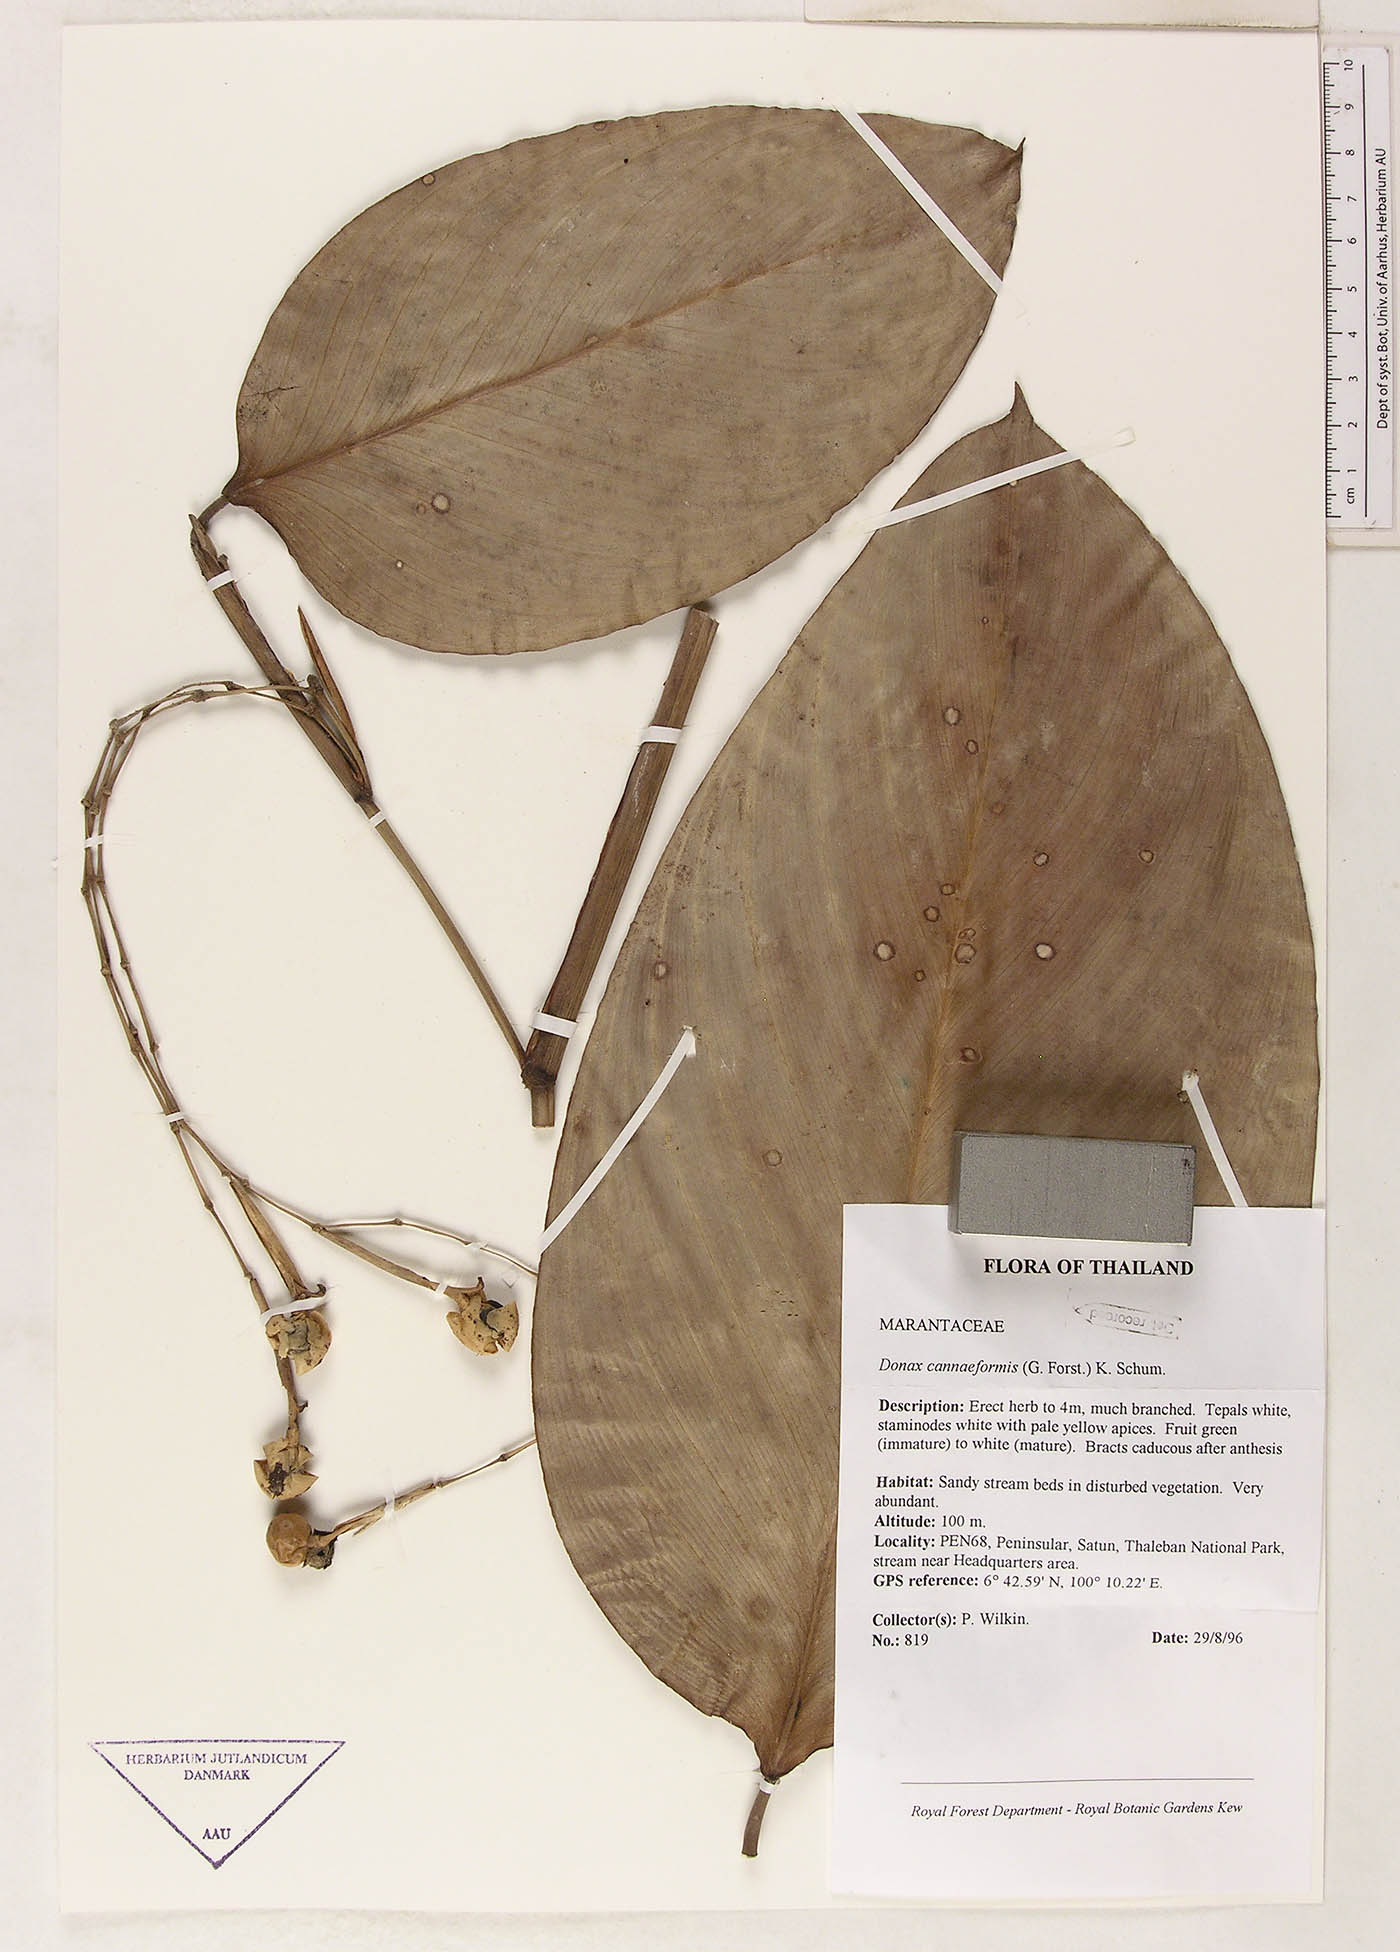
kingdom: Plantae
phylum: Tracheophyta
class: Liliopsida
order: Zingiberales
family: Marantaceae
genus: Donax
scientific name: Donax canniformis
